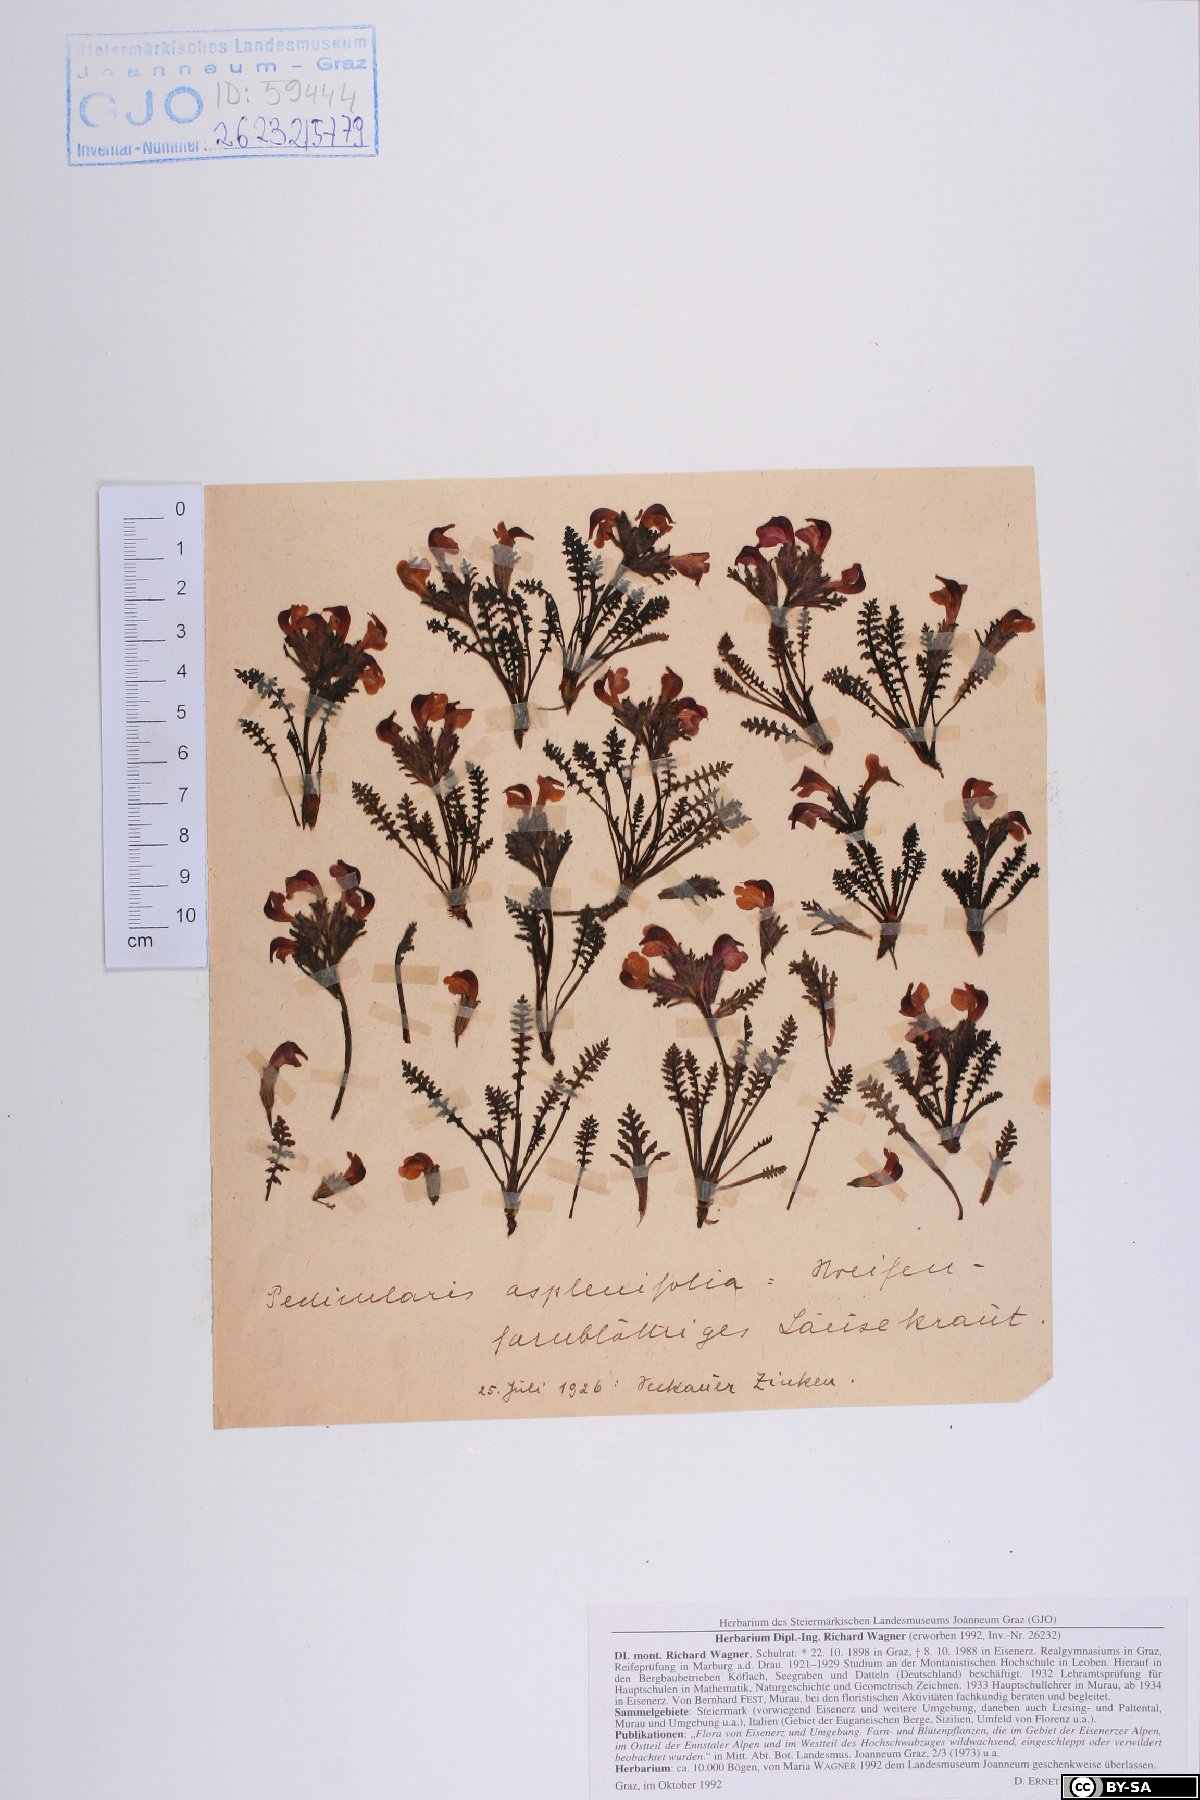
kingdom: Plantae
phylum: Tracheophyta
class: Magnoliopsida
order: Lamiales
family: Orobanchaceae
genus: Pedicularis
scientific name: Pedicularis asplenifolia
